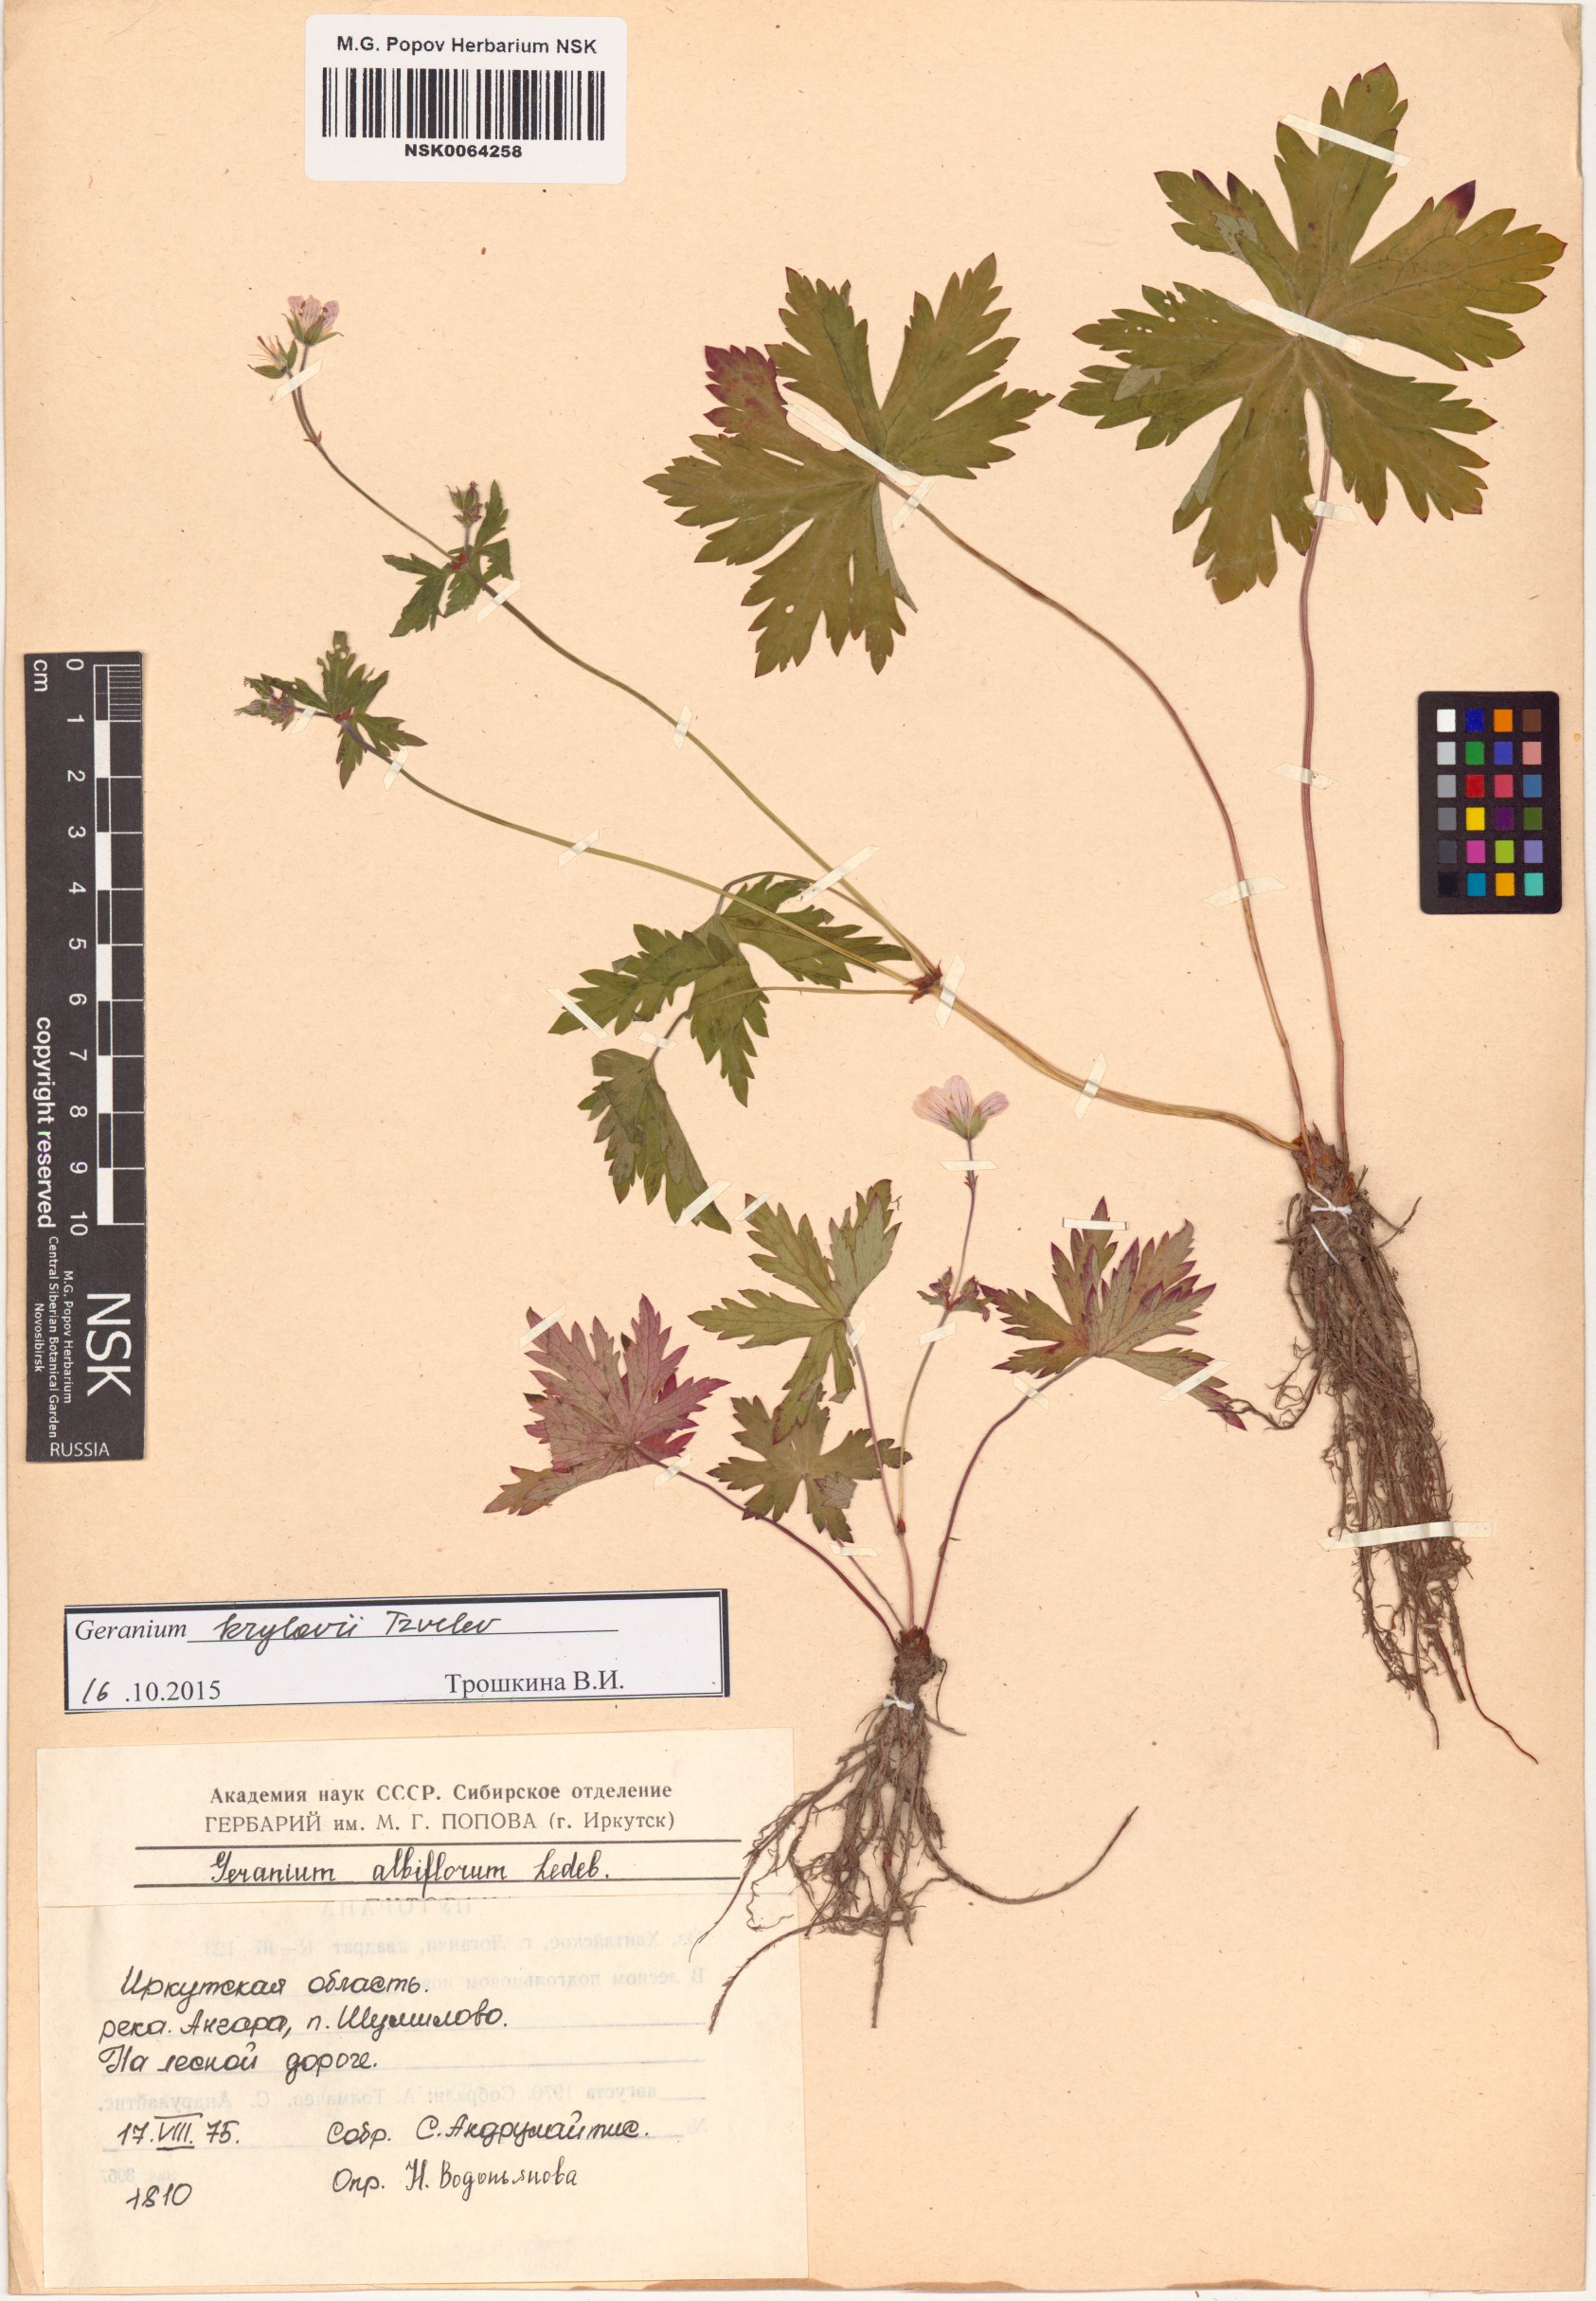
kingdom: Plantae
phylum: Tracheophyta
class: Magnoliopsida
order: Geraniales
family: Geraniaceae
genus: Geranium
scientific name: Geranium sylvaticum
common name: Wood crane's-bill
